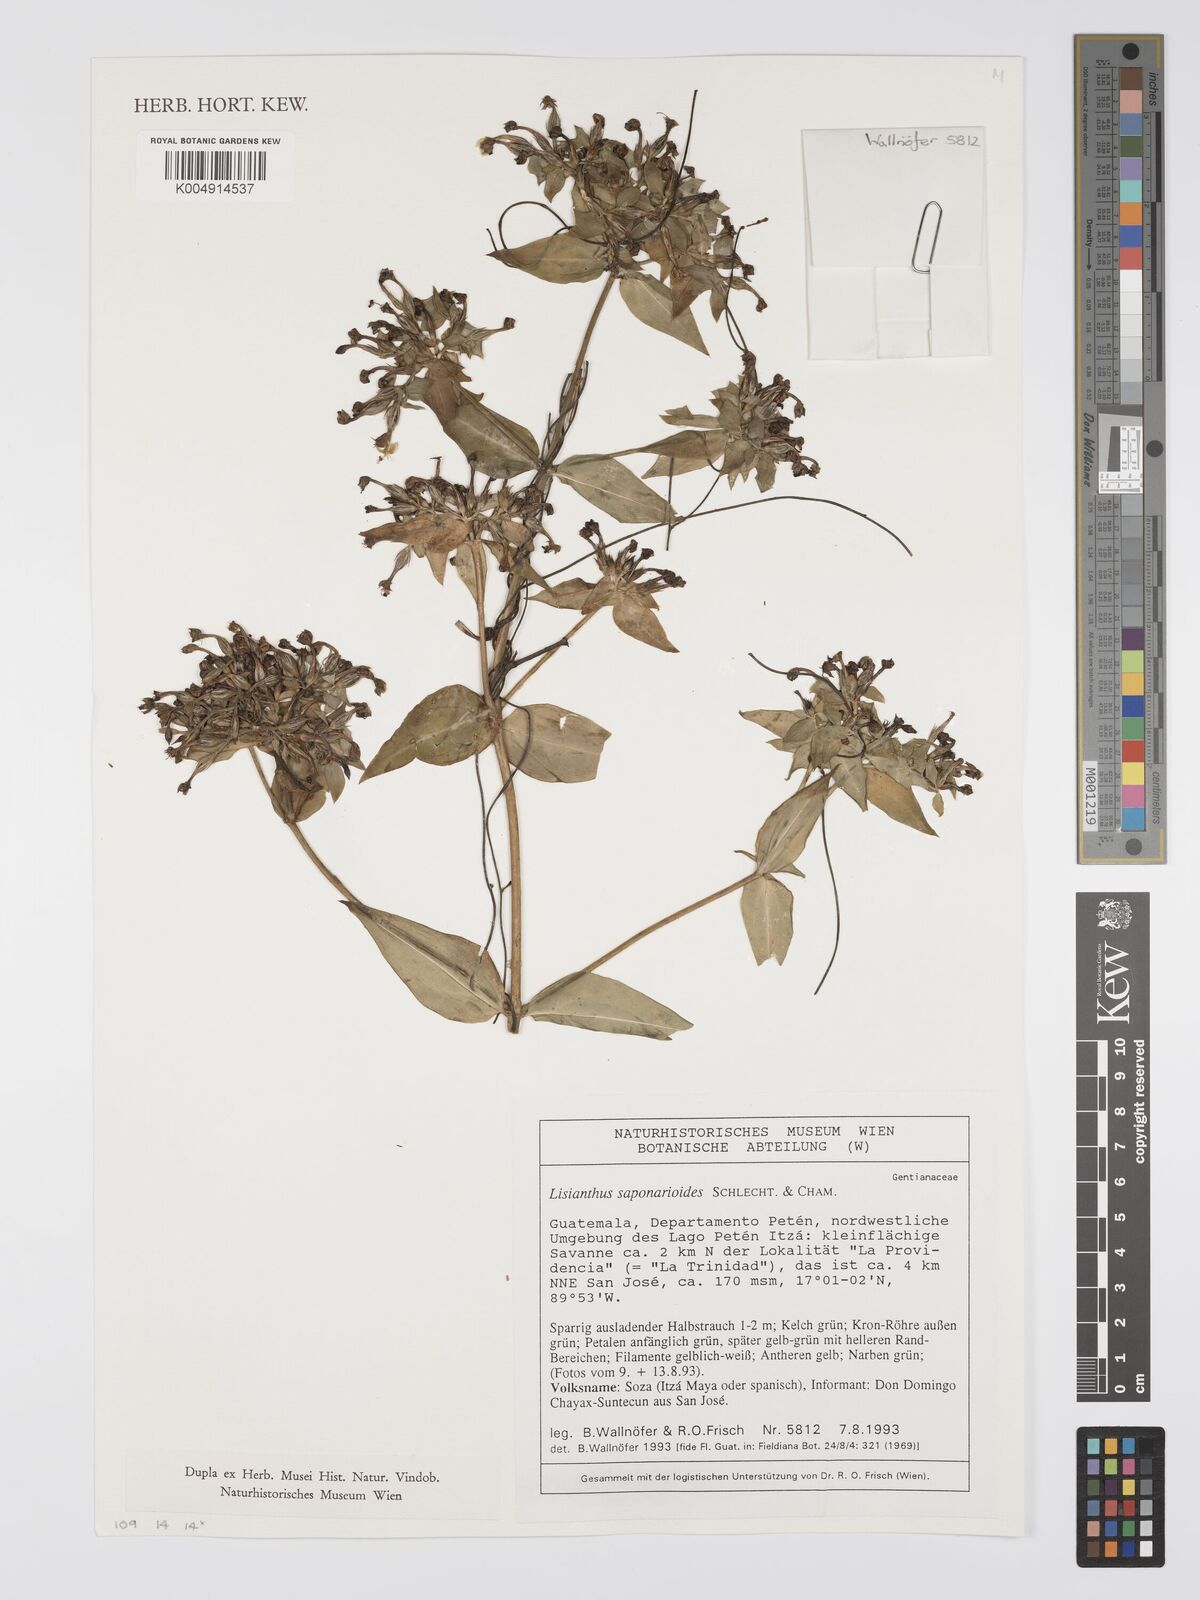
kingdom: Plantae
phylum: Tracheophyta
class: Magnoliopsida
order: Gentianales
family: Gentianaceae
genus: Lisianthus
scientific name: Lisianthus saponarioides
